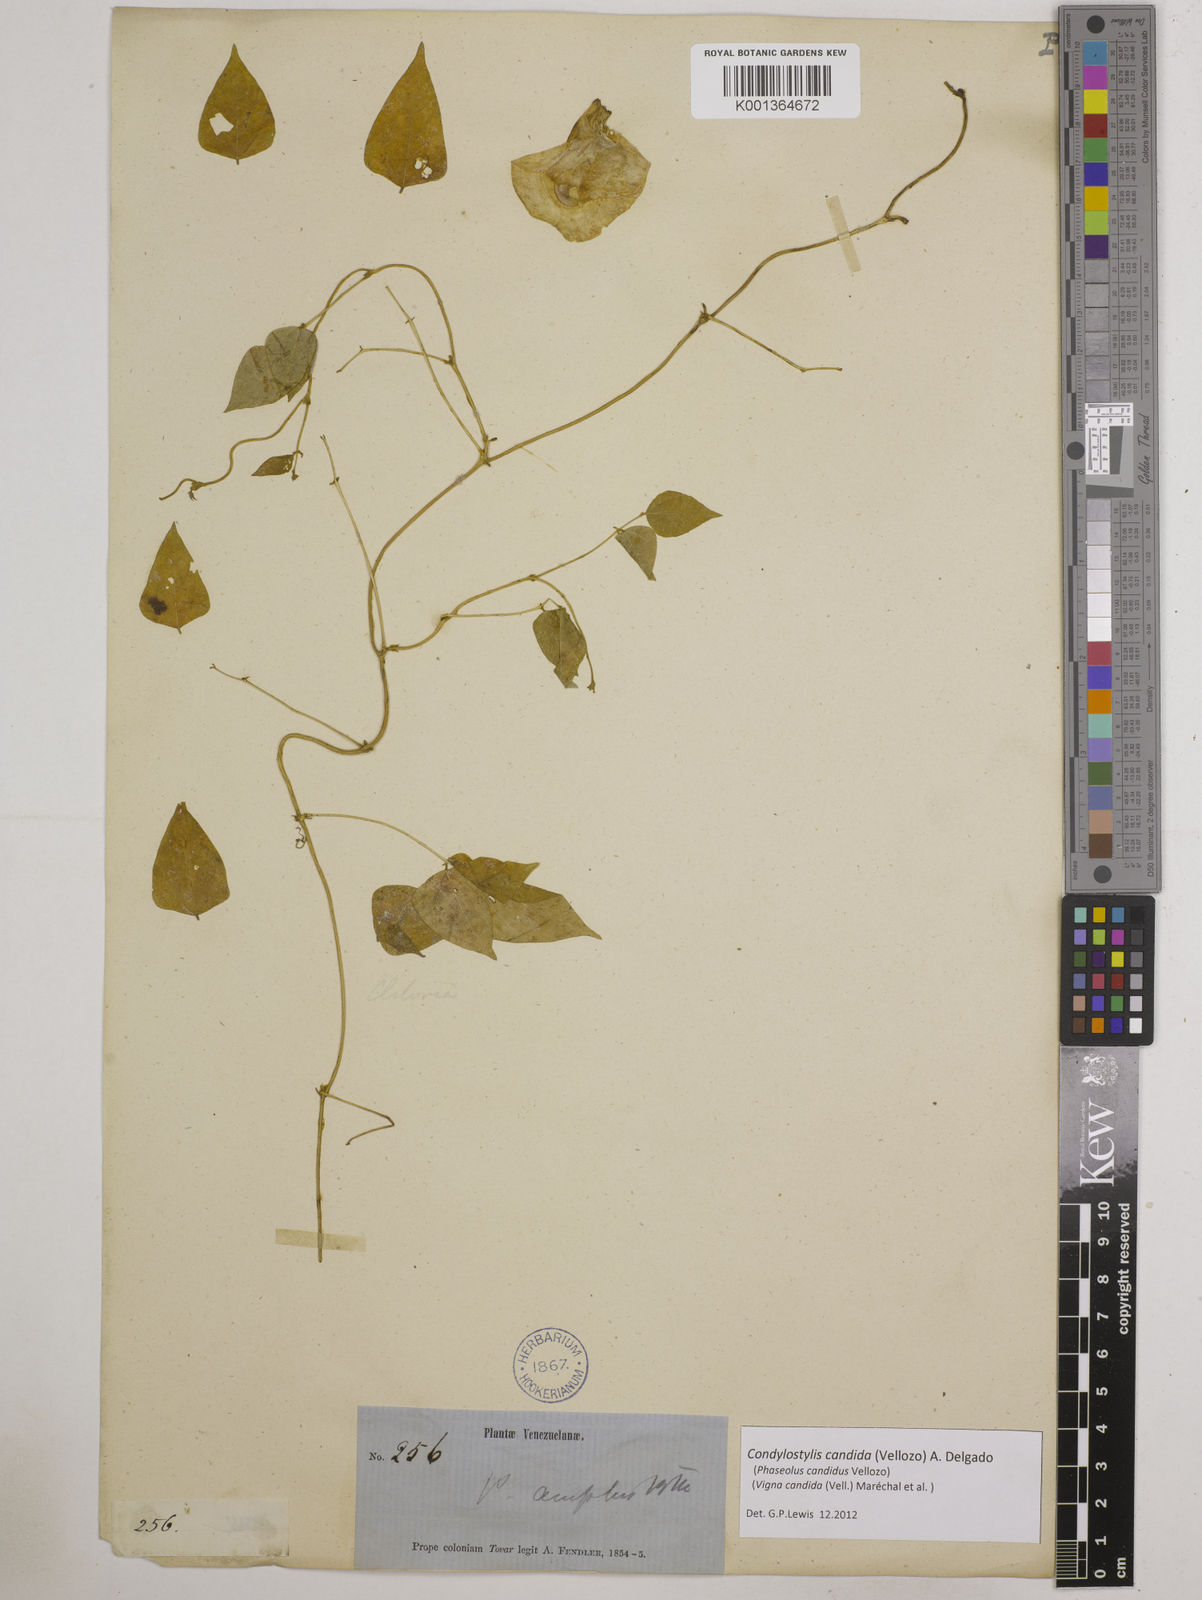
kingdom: Plantae
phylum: Tracheophyta
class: Magnoliopsida
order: Fabales
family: Fabaceae
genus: Condylostylis
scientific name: Condylostylis candida
